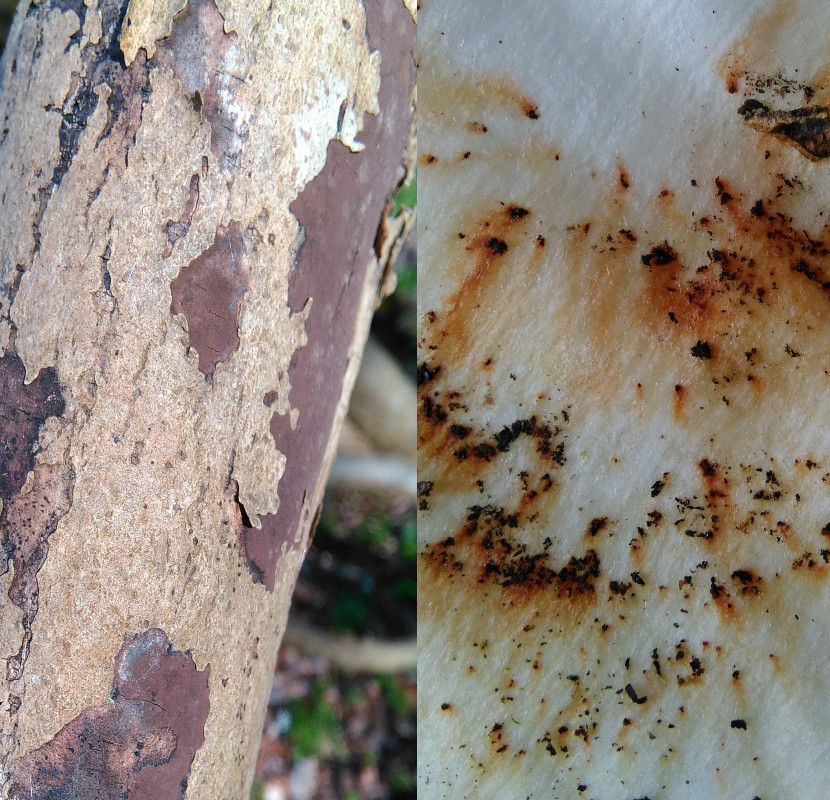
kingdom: Fungi
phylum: Ascomycota
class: Sordariomycetes
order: Xylariales
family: Hypoxylaceae
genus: Hypoxylon
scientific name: Hypoxylon petriniae
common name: nedsænket kulbær
